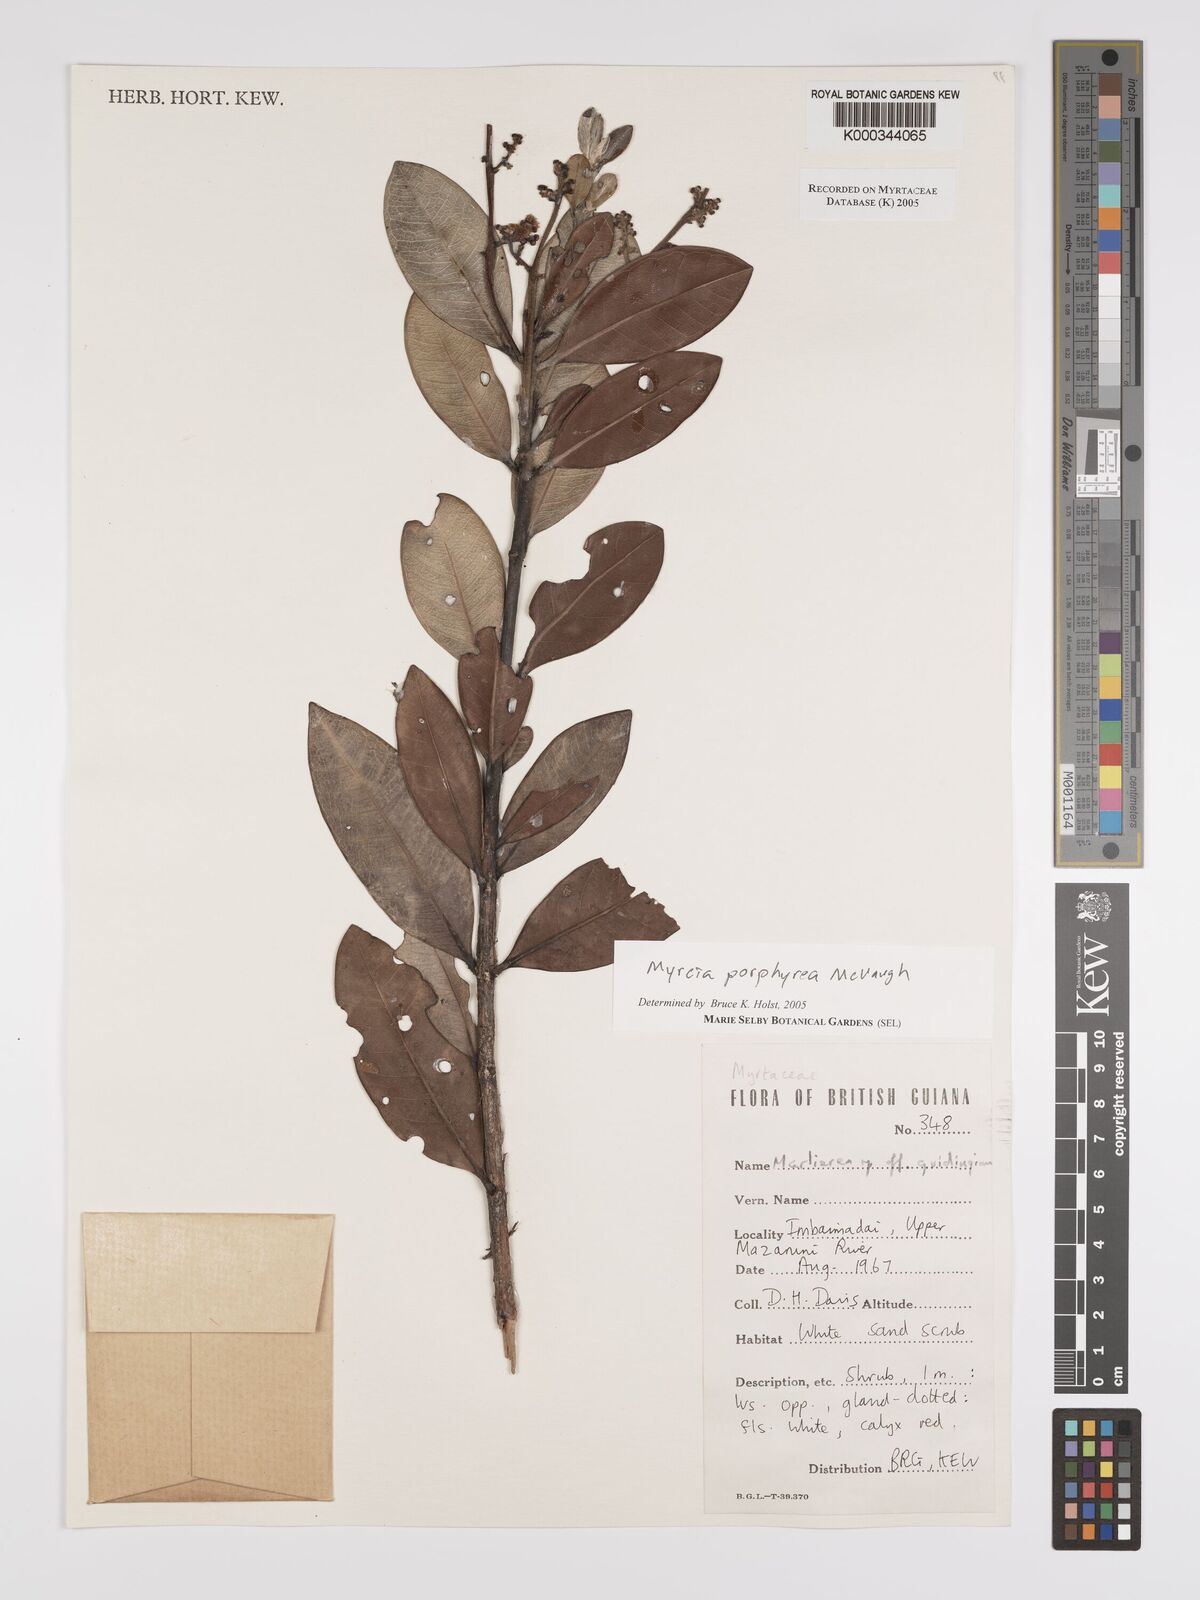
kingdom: Plantae
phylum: Tracheophyta
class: Magnoliopsida
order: Myrtales
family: Myrtaceae
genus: Myrcia
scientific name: Myrcia porphyrea
